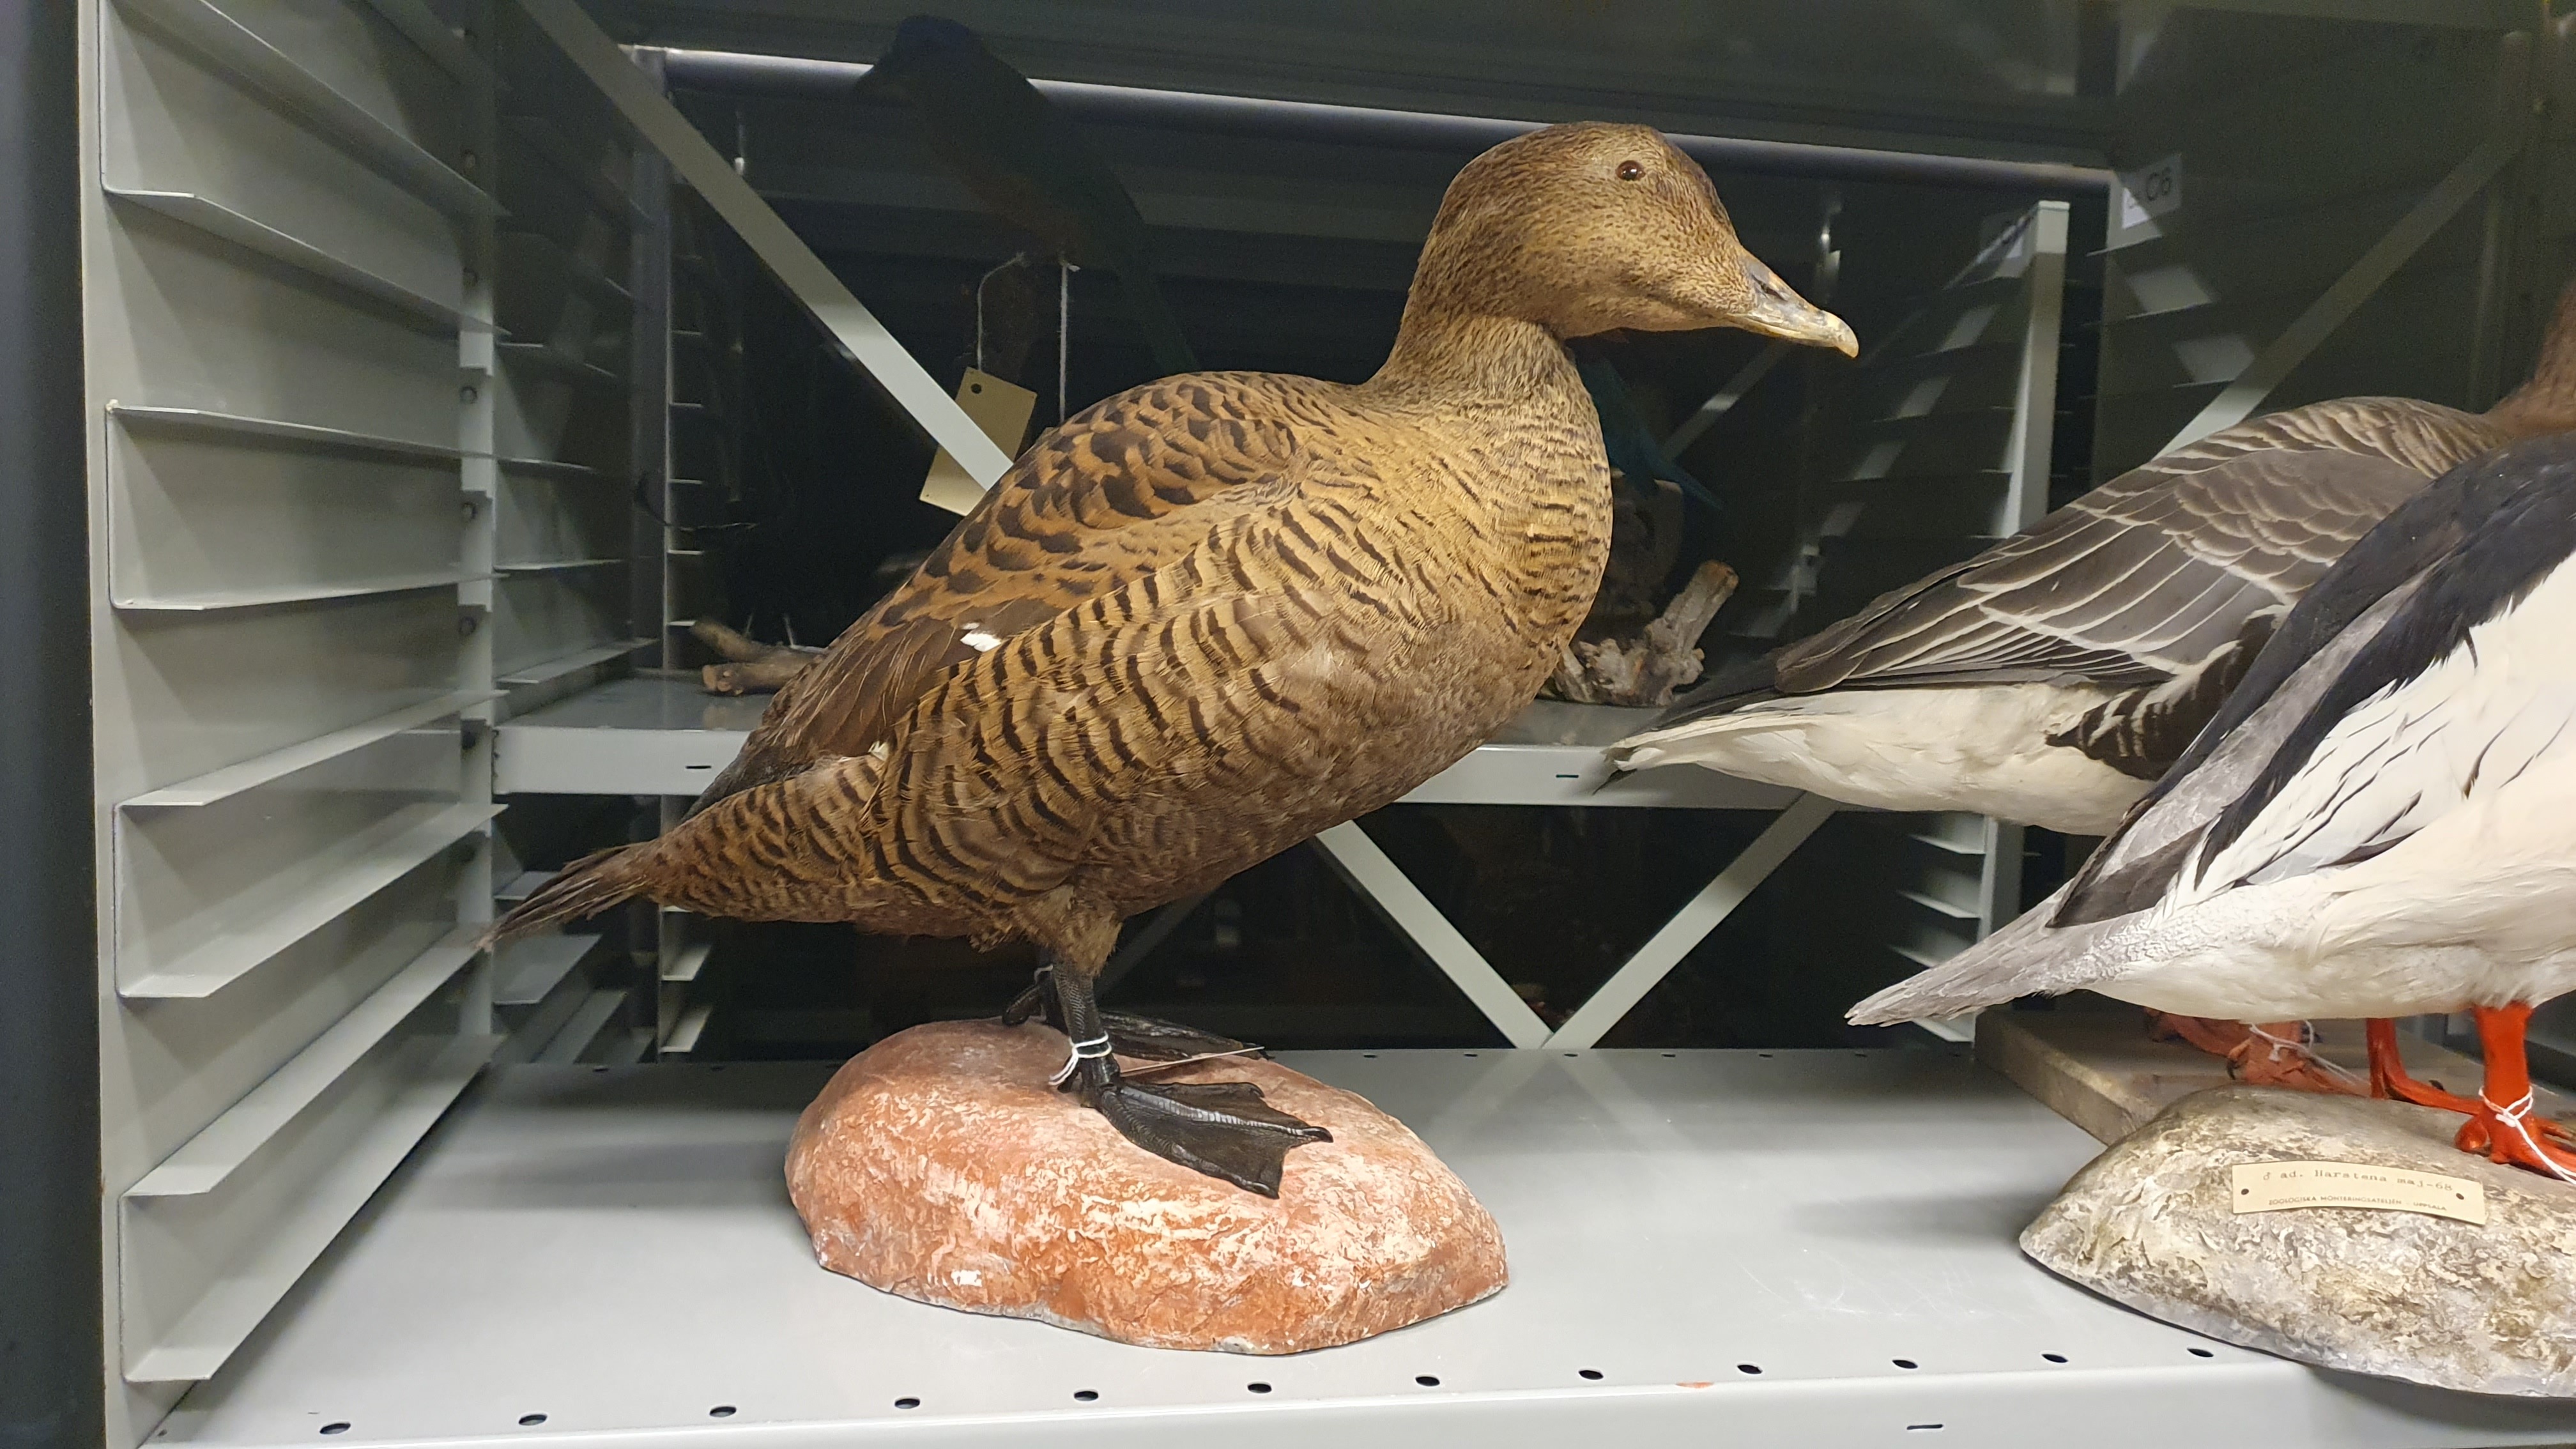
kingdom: Animalia
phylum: Chordata
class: Aves
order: Anseriformes
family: Anatidae
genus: Somateria
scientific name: Somateria mollissima
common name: Common eider
